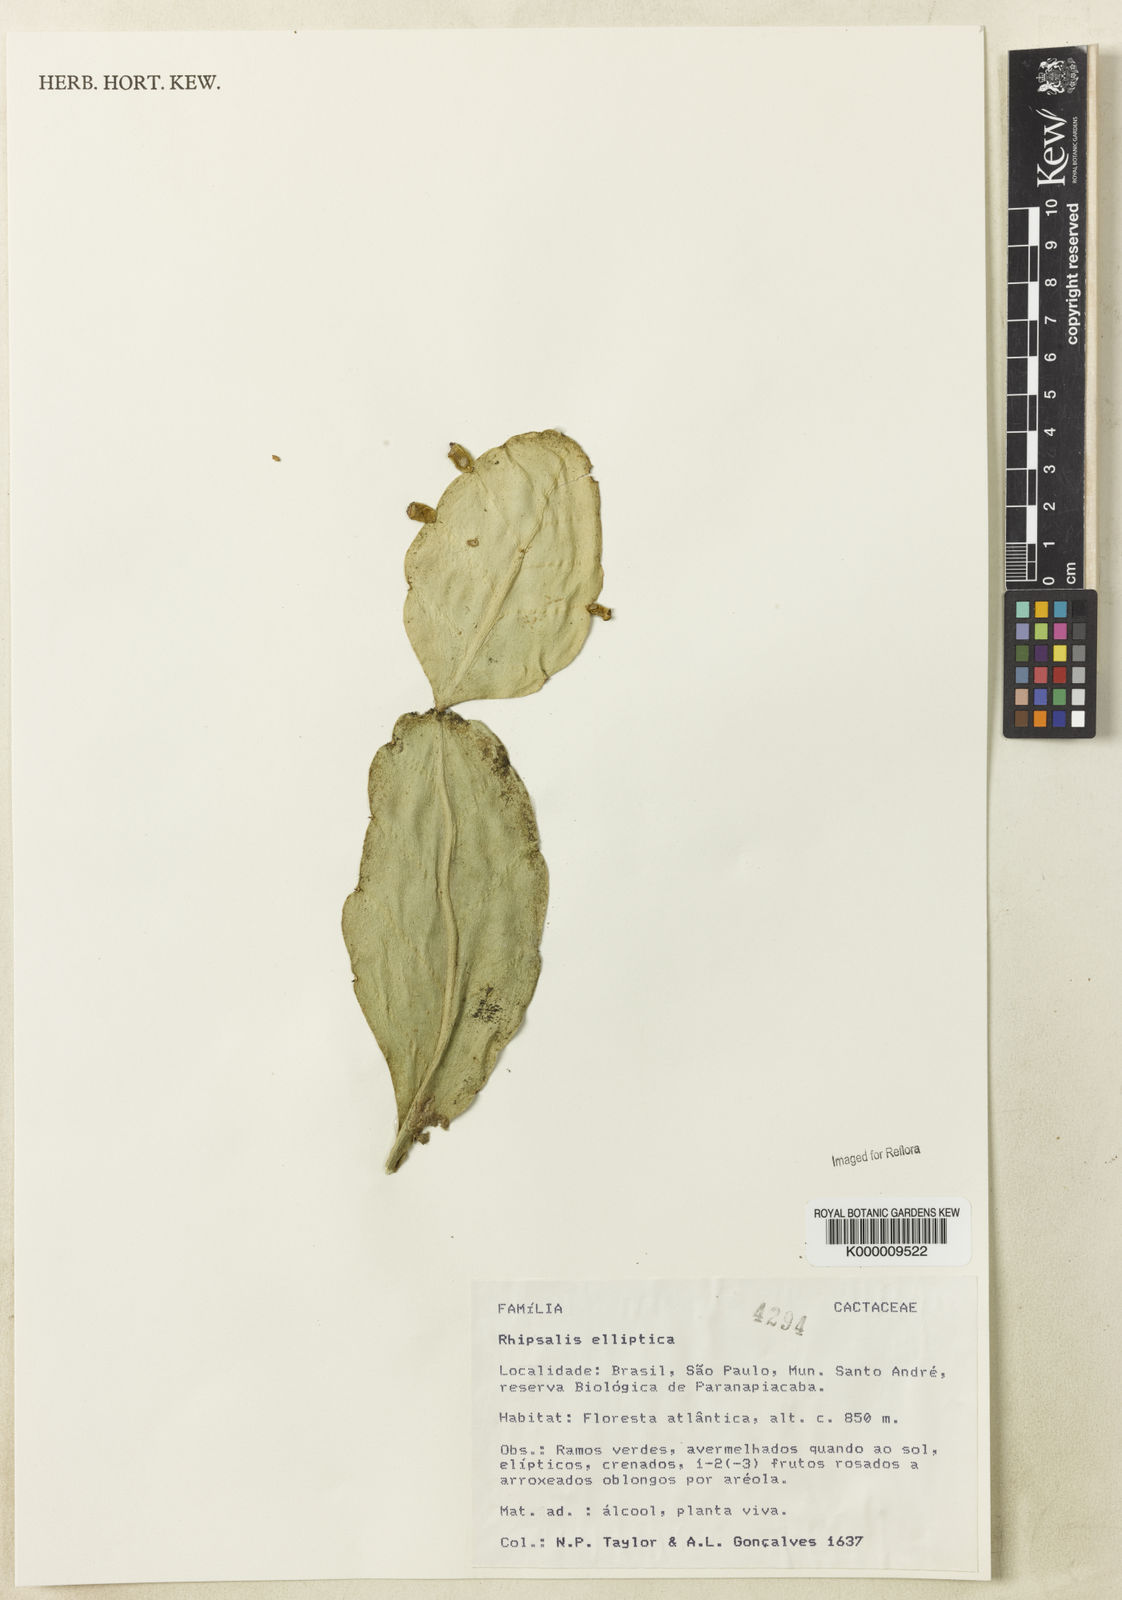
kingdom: Plantae
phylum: Tracheophyta
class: Magnoliopsida
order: Caryophyllales
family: Cactaceae
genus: Rhipsalis
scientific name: Rhipsalis elliptica
